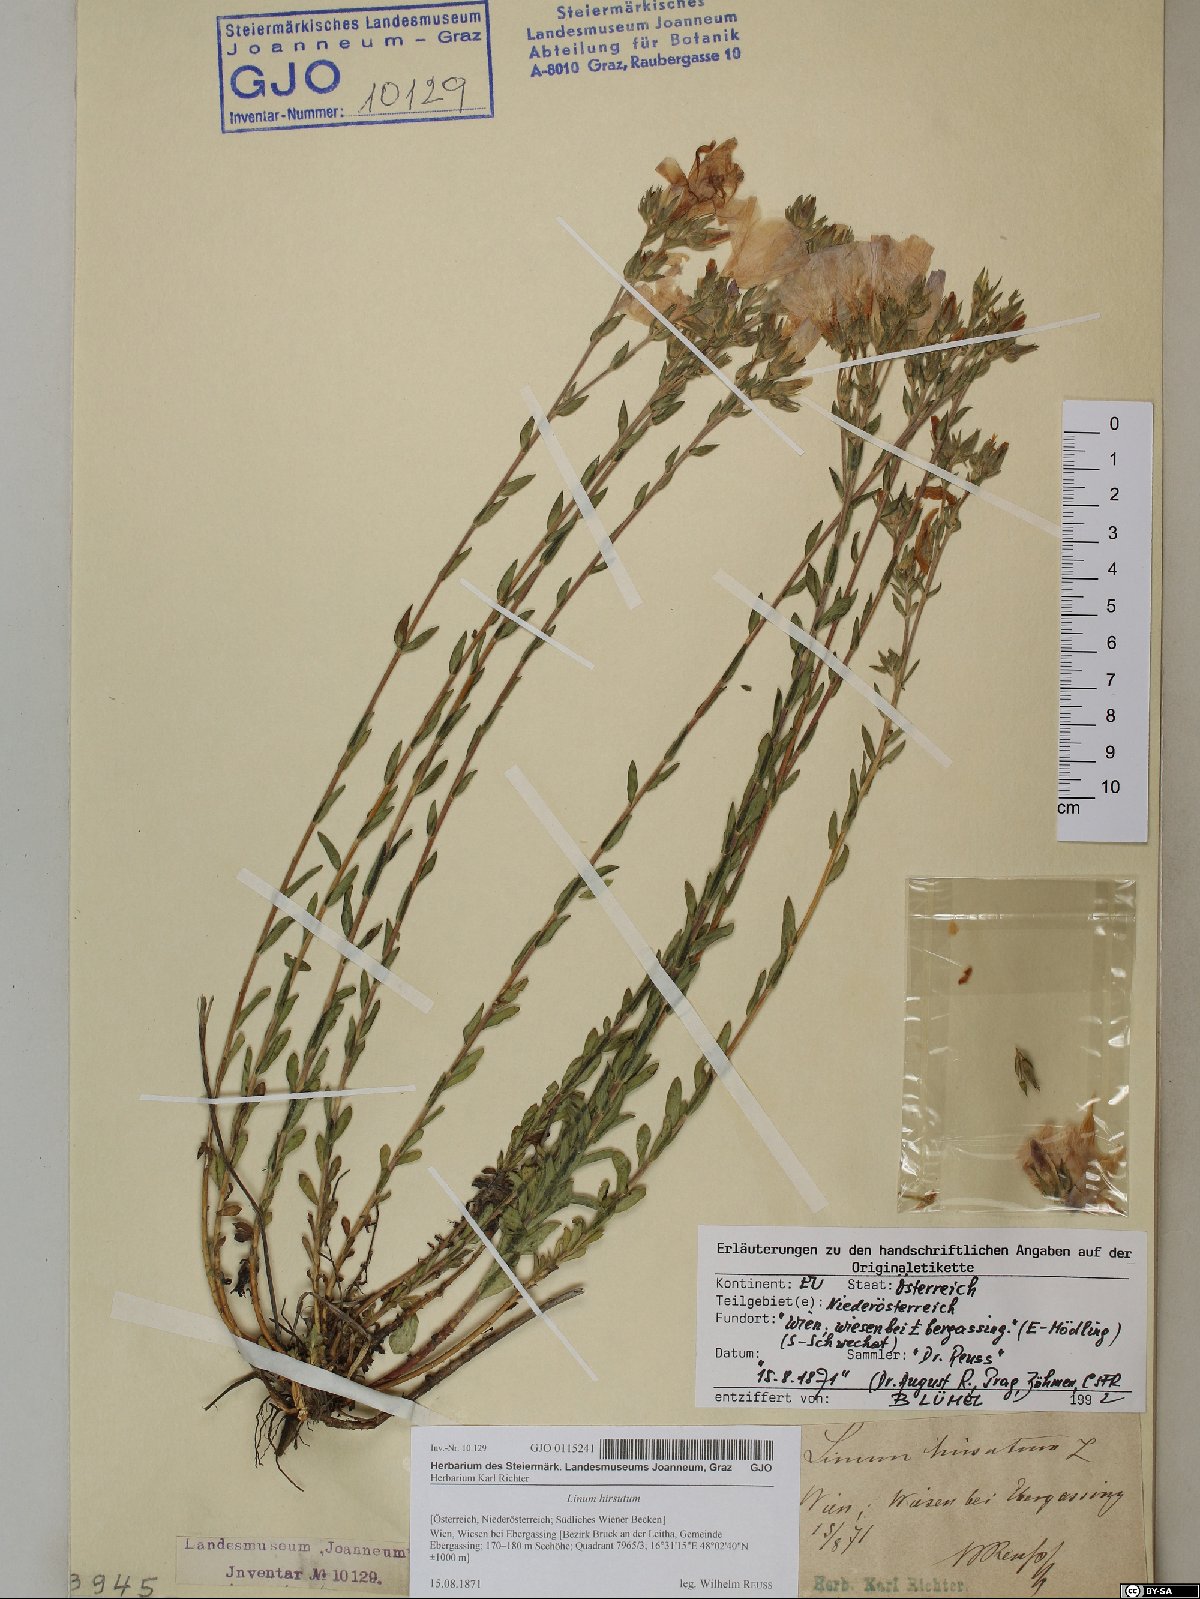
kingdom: Plantae
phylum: Tracheophyta
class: Magnoliopsida
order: Malpighiales
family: Linaceae
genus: Linum
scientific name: Linum hirsutum
